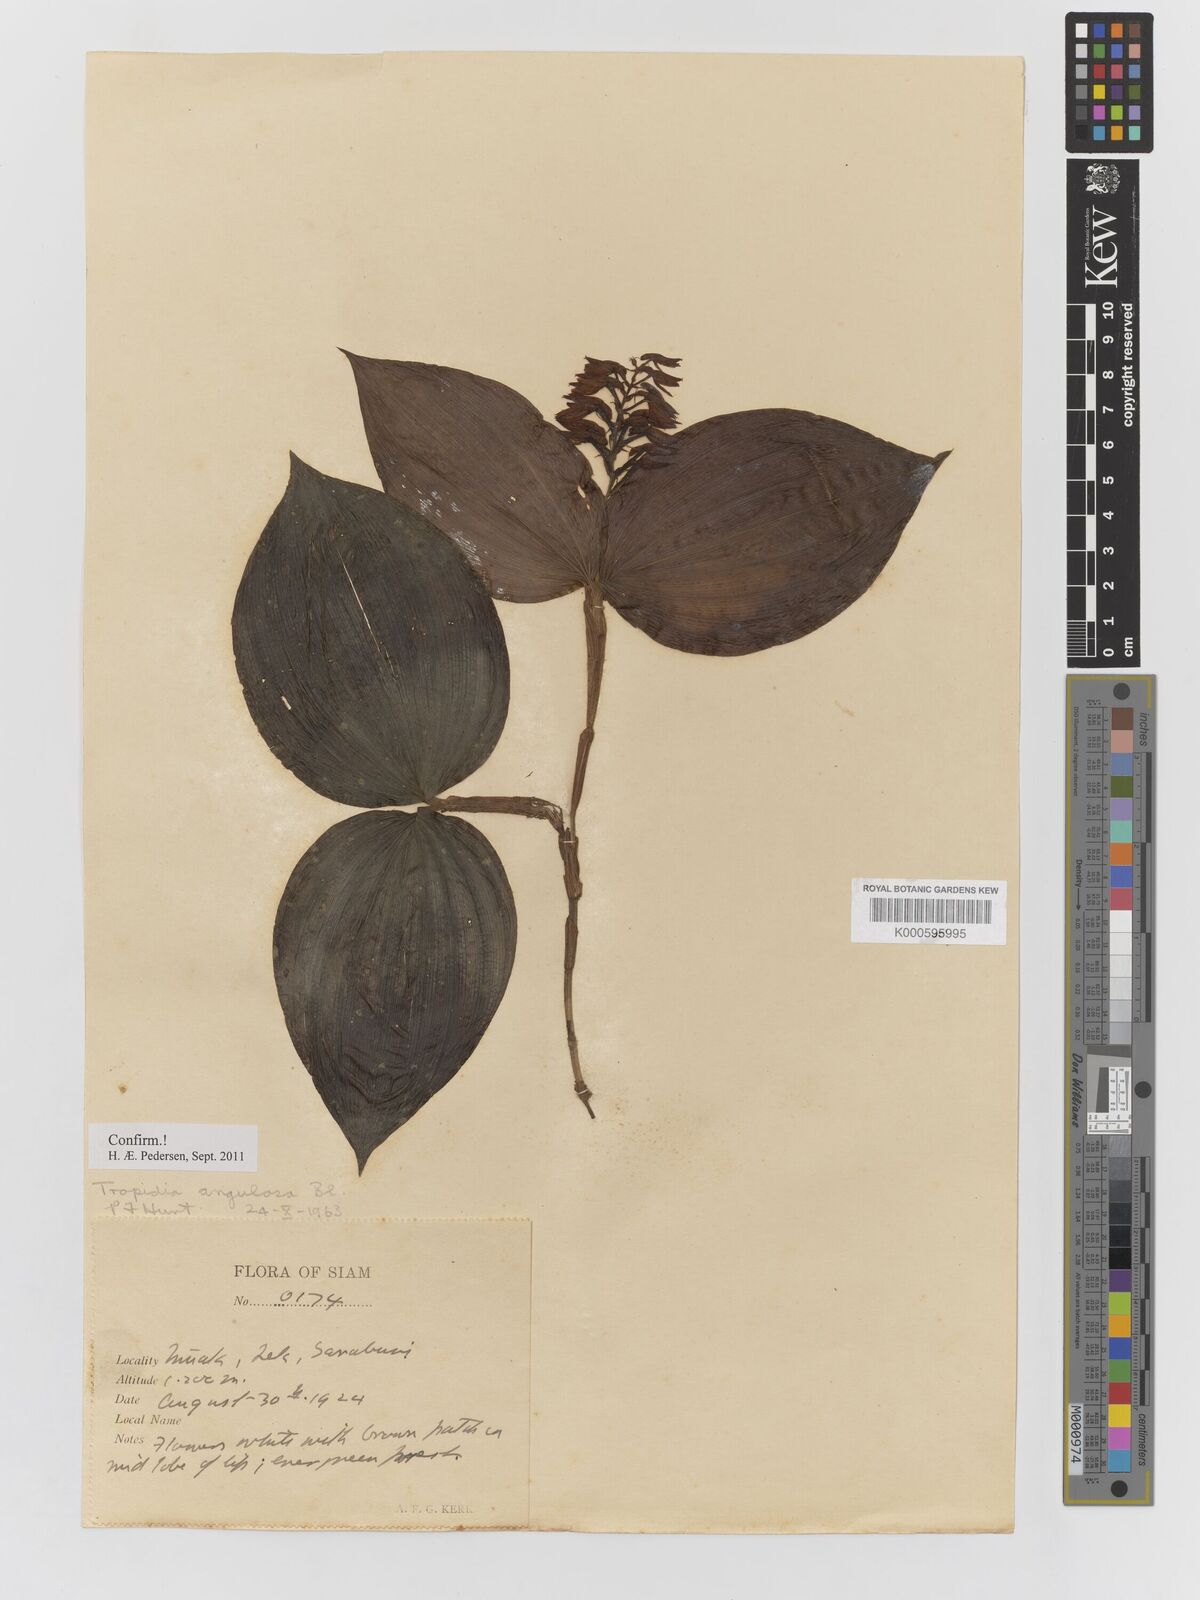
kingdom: Plantae
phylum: Tracheophyta
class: Liliopsida
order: Asparagales
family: Orchidaceae
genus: Tropidia
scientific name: Tropidia angulosa
